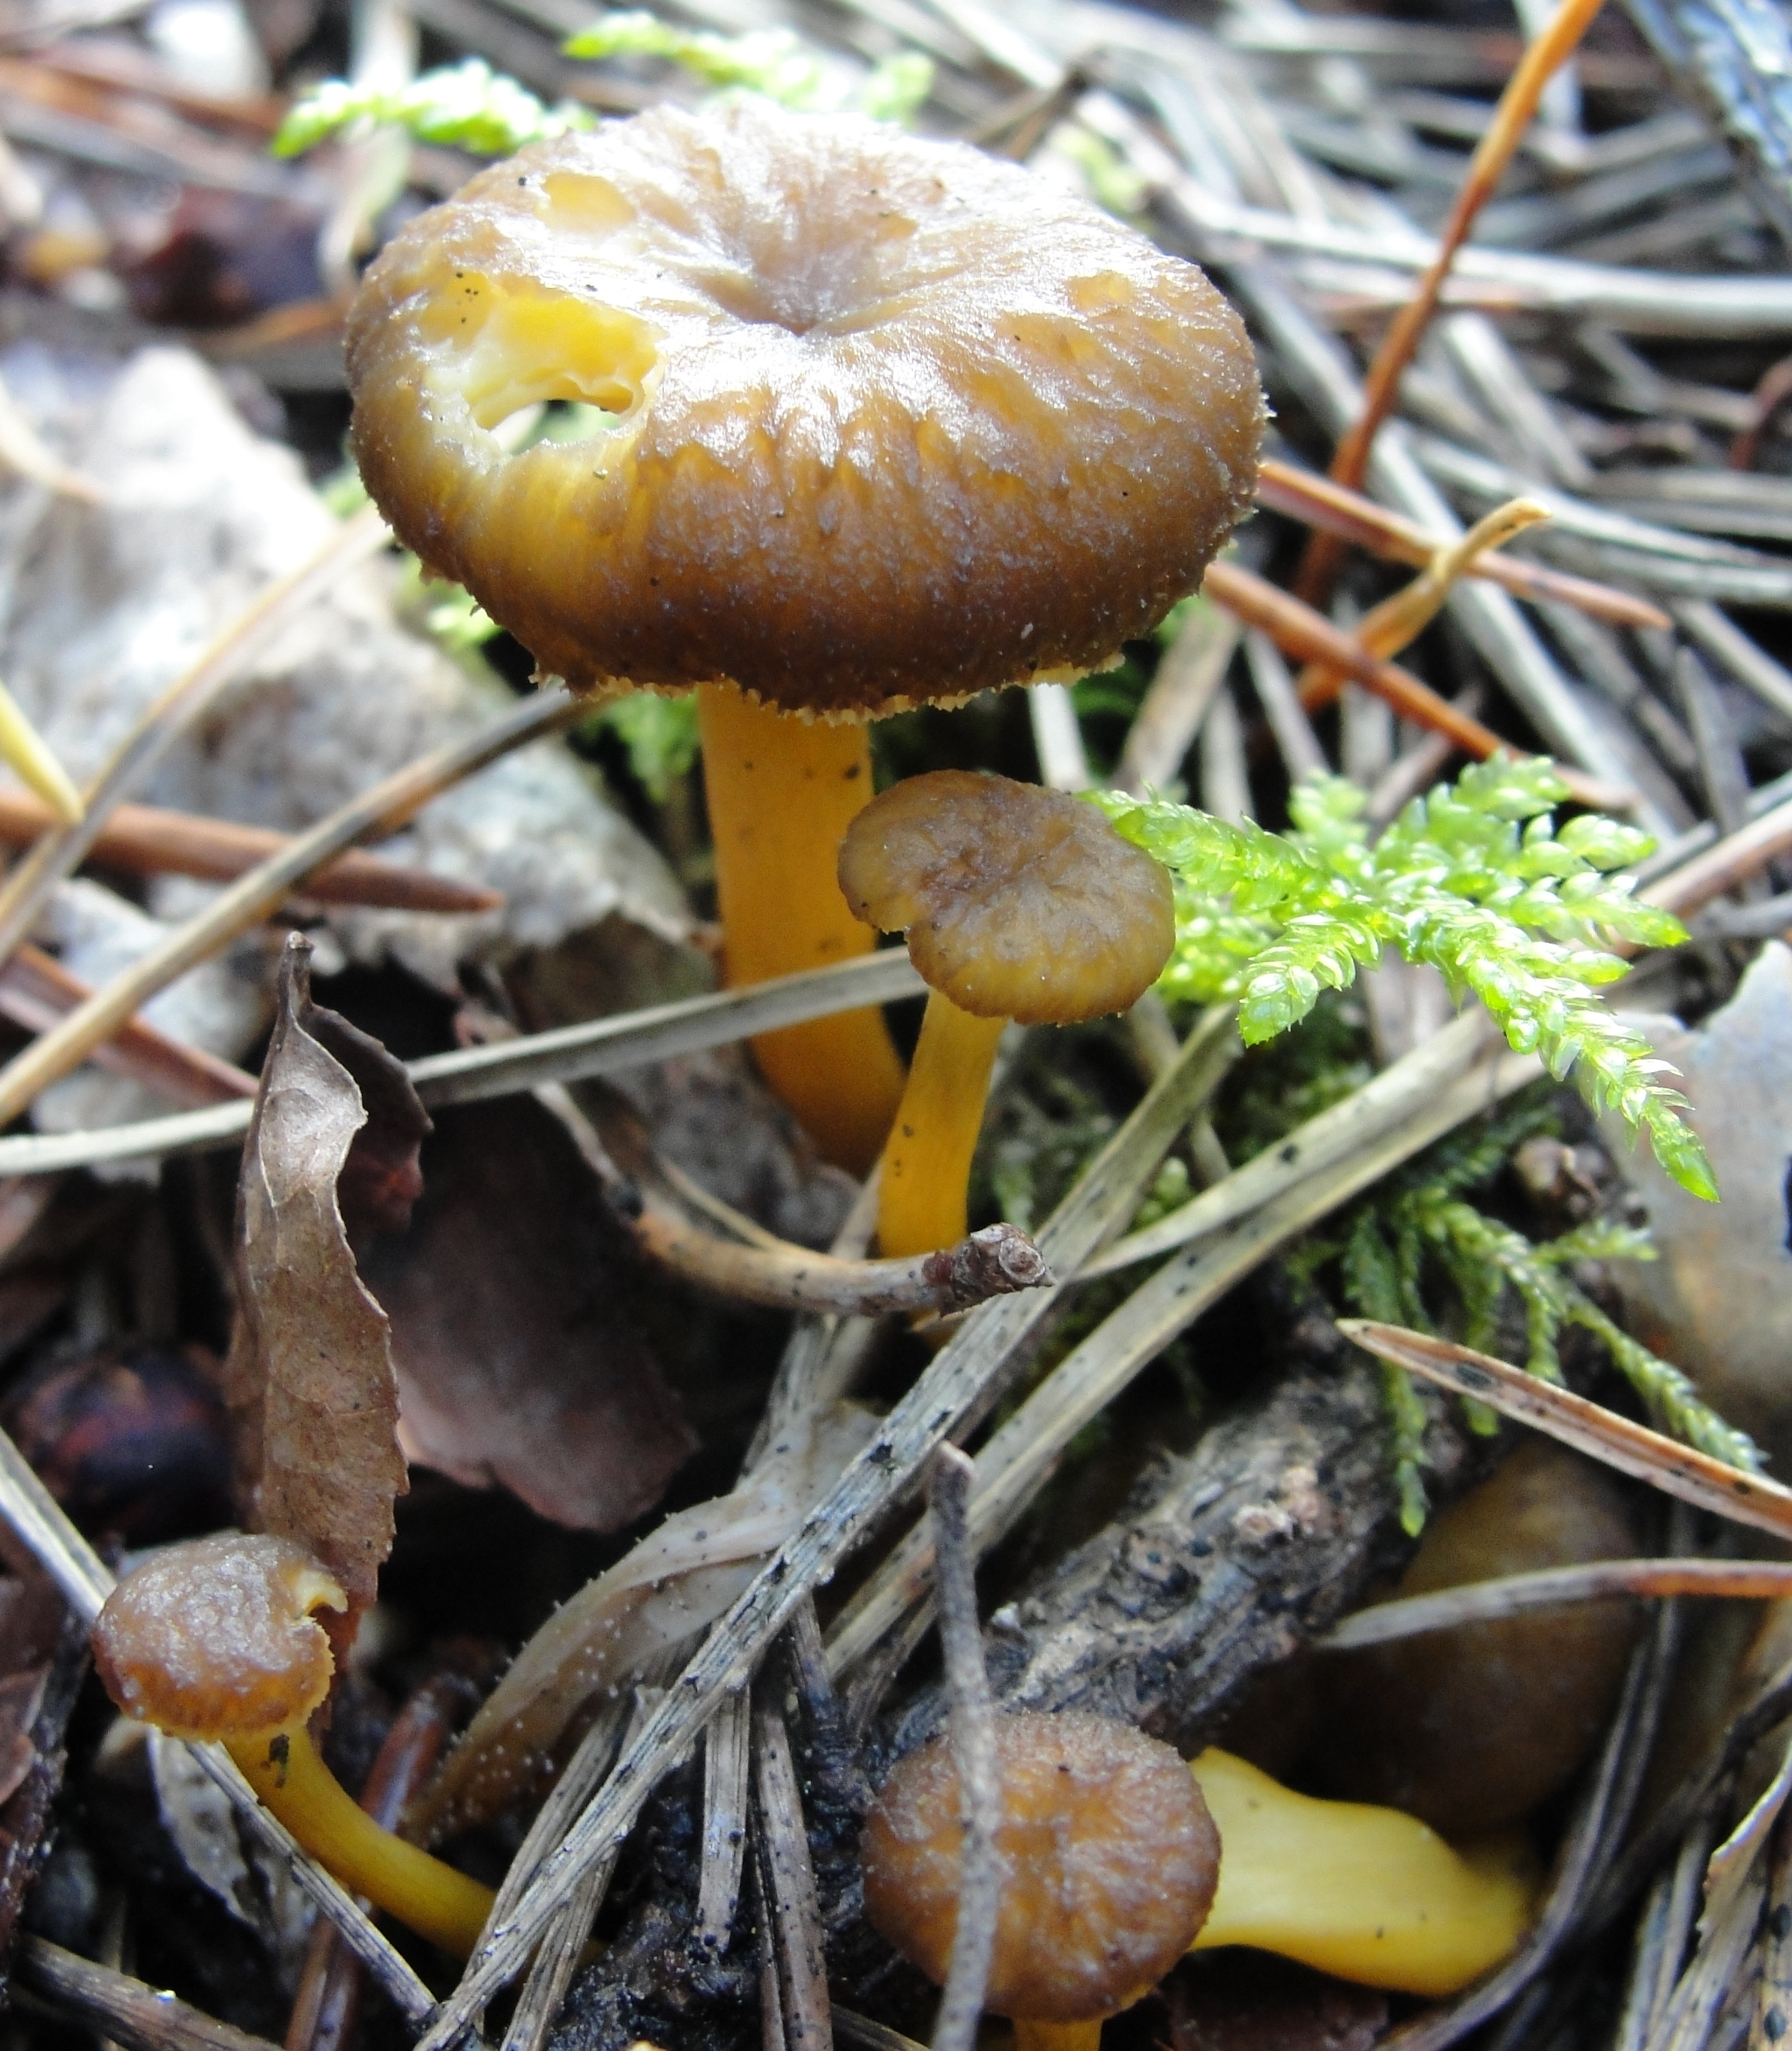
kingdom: Fungi
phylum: Basidiomycota
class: Agaricomycetes
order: Cantharellales
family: Hydnaceae
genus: Craterellus
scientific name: Craterellus tubaeformis
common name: Yellowfoot
